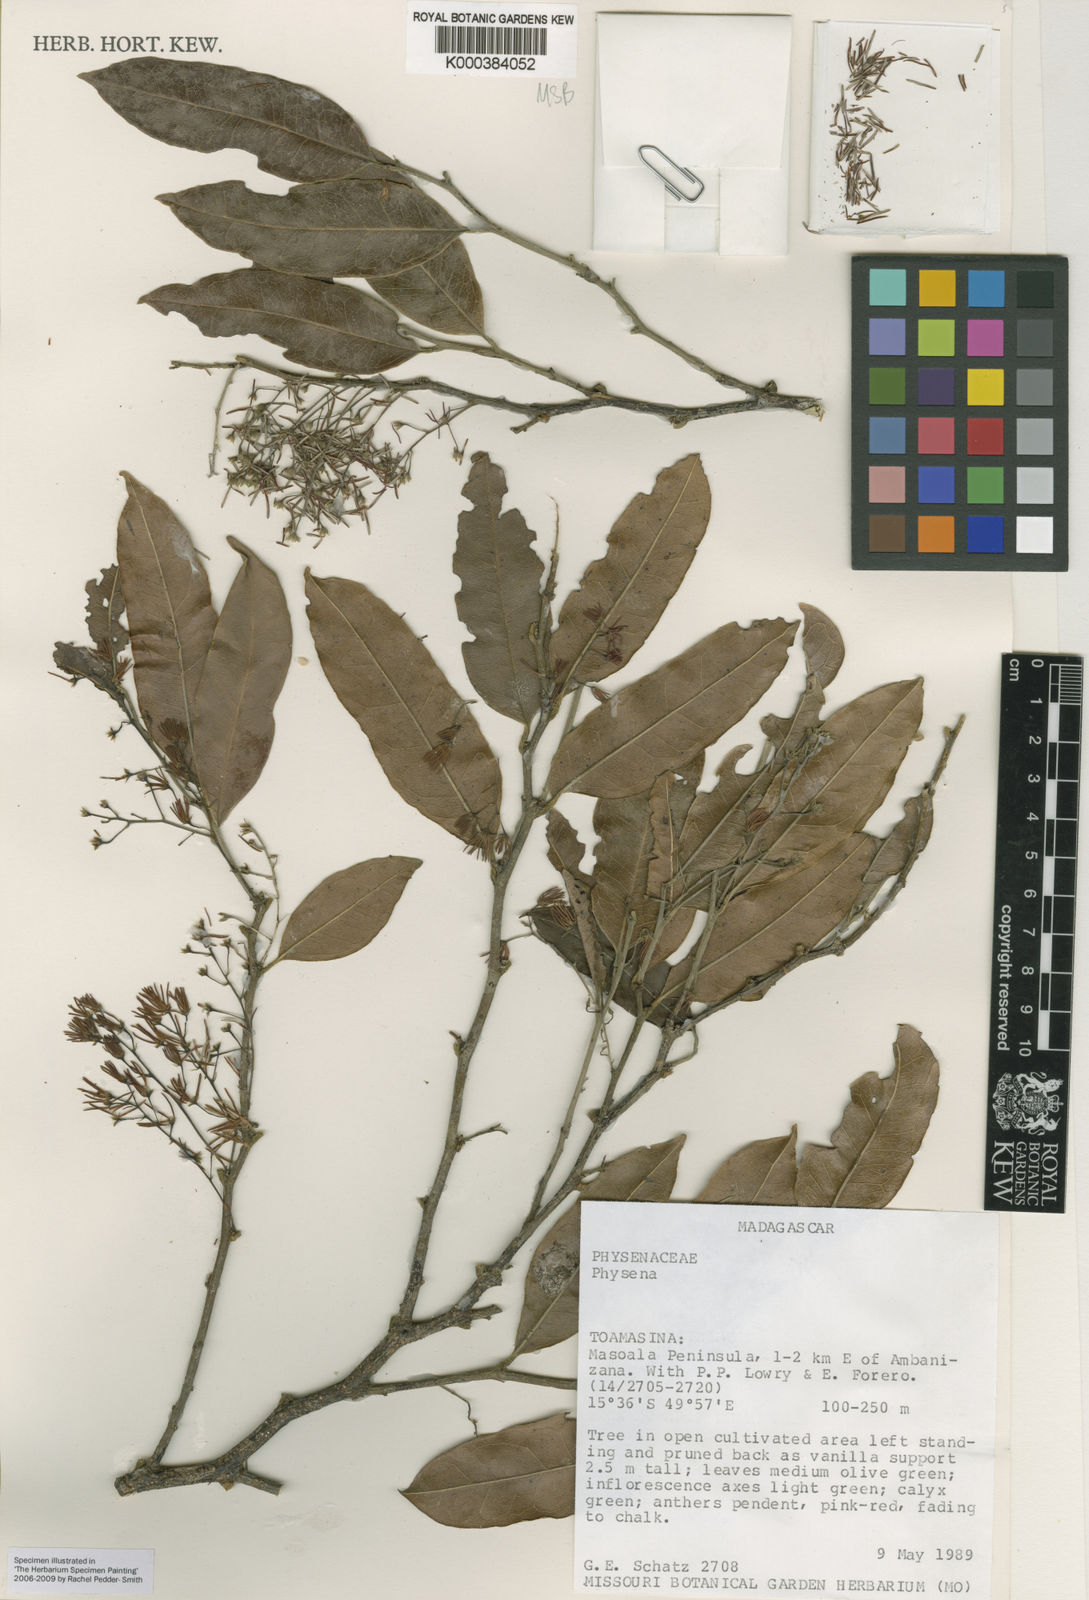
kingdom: Plantae
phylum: Tracheophyta
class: Magnoliopsida
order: Caryophyllales
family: Physenaceae
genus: Physena
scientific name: Physena madagascariensis
